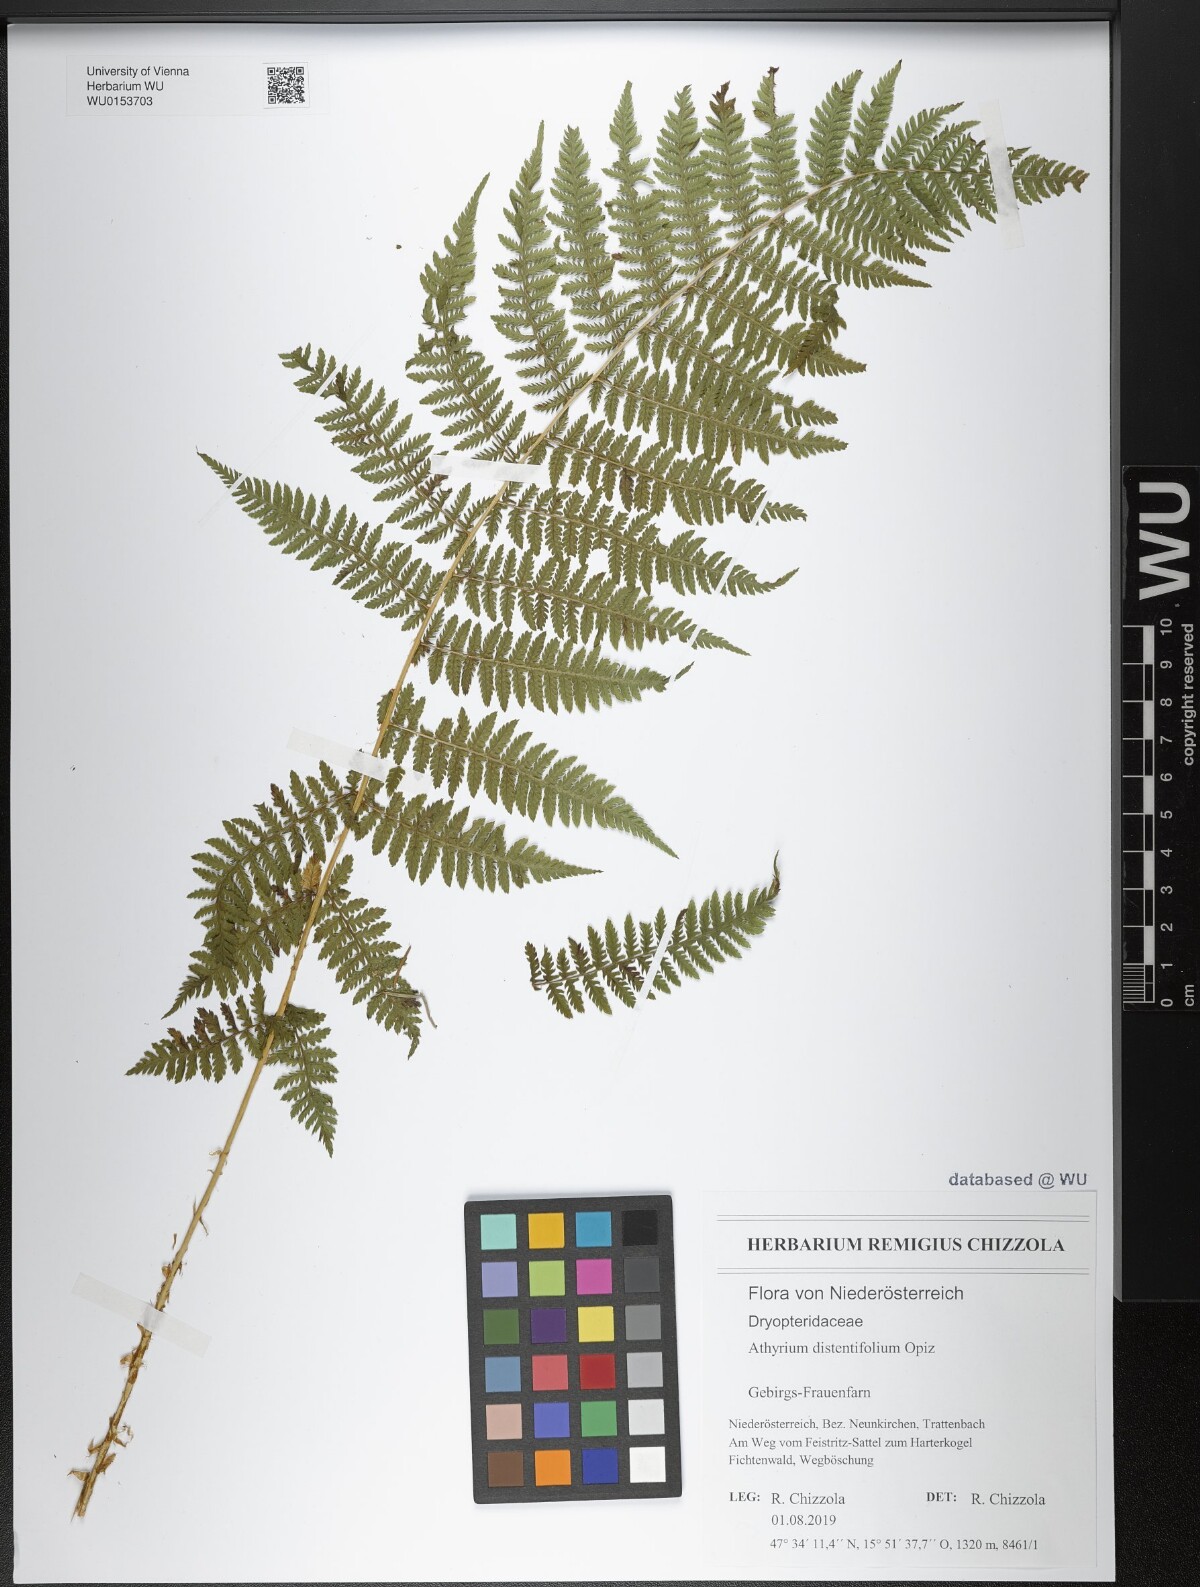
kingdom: Plantae
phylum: Tracheophyta
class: Polypodiopsida
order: Polypodiales
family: Athyriaceae
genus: Pseudathyrium
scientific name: Pseudathyrium alpestre
